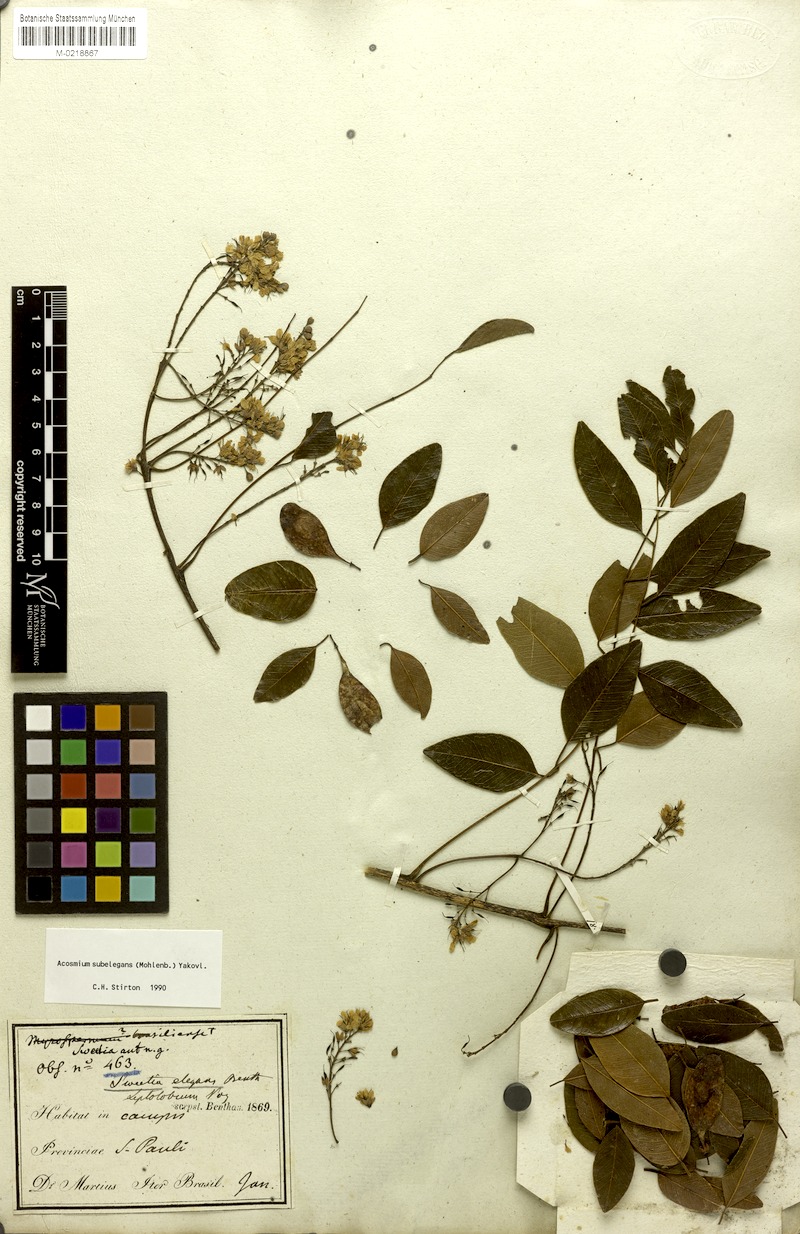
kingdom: Plantae
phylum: Tracheophyta
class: Magnoliopsida
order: Fabales
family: Fabaceae
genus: Leptolobium
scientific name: Leptolobium elegans
